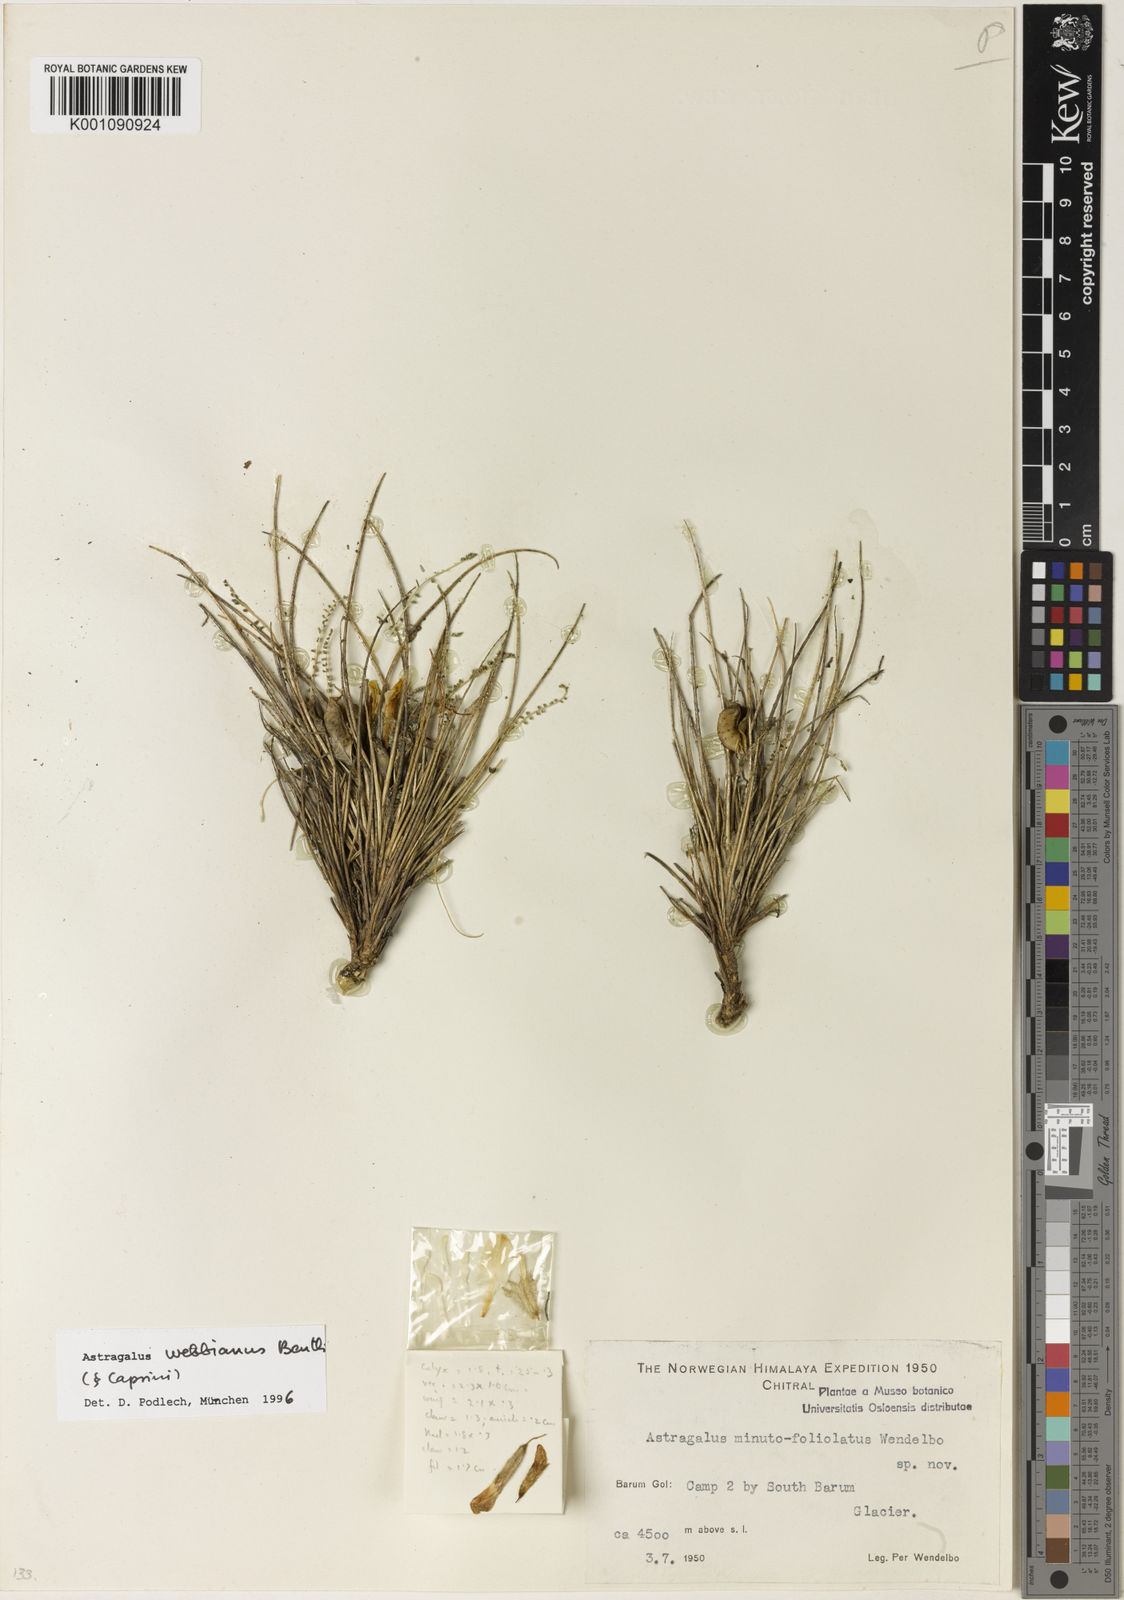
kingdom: Plantae
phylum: Tracheophyta
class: Magnoliopsida
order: Fabales
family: Fabaceae
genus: Astragalus
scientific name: Astragalus
